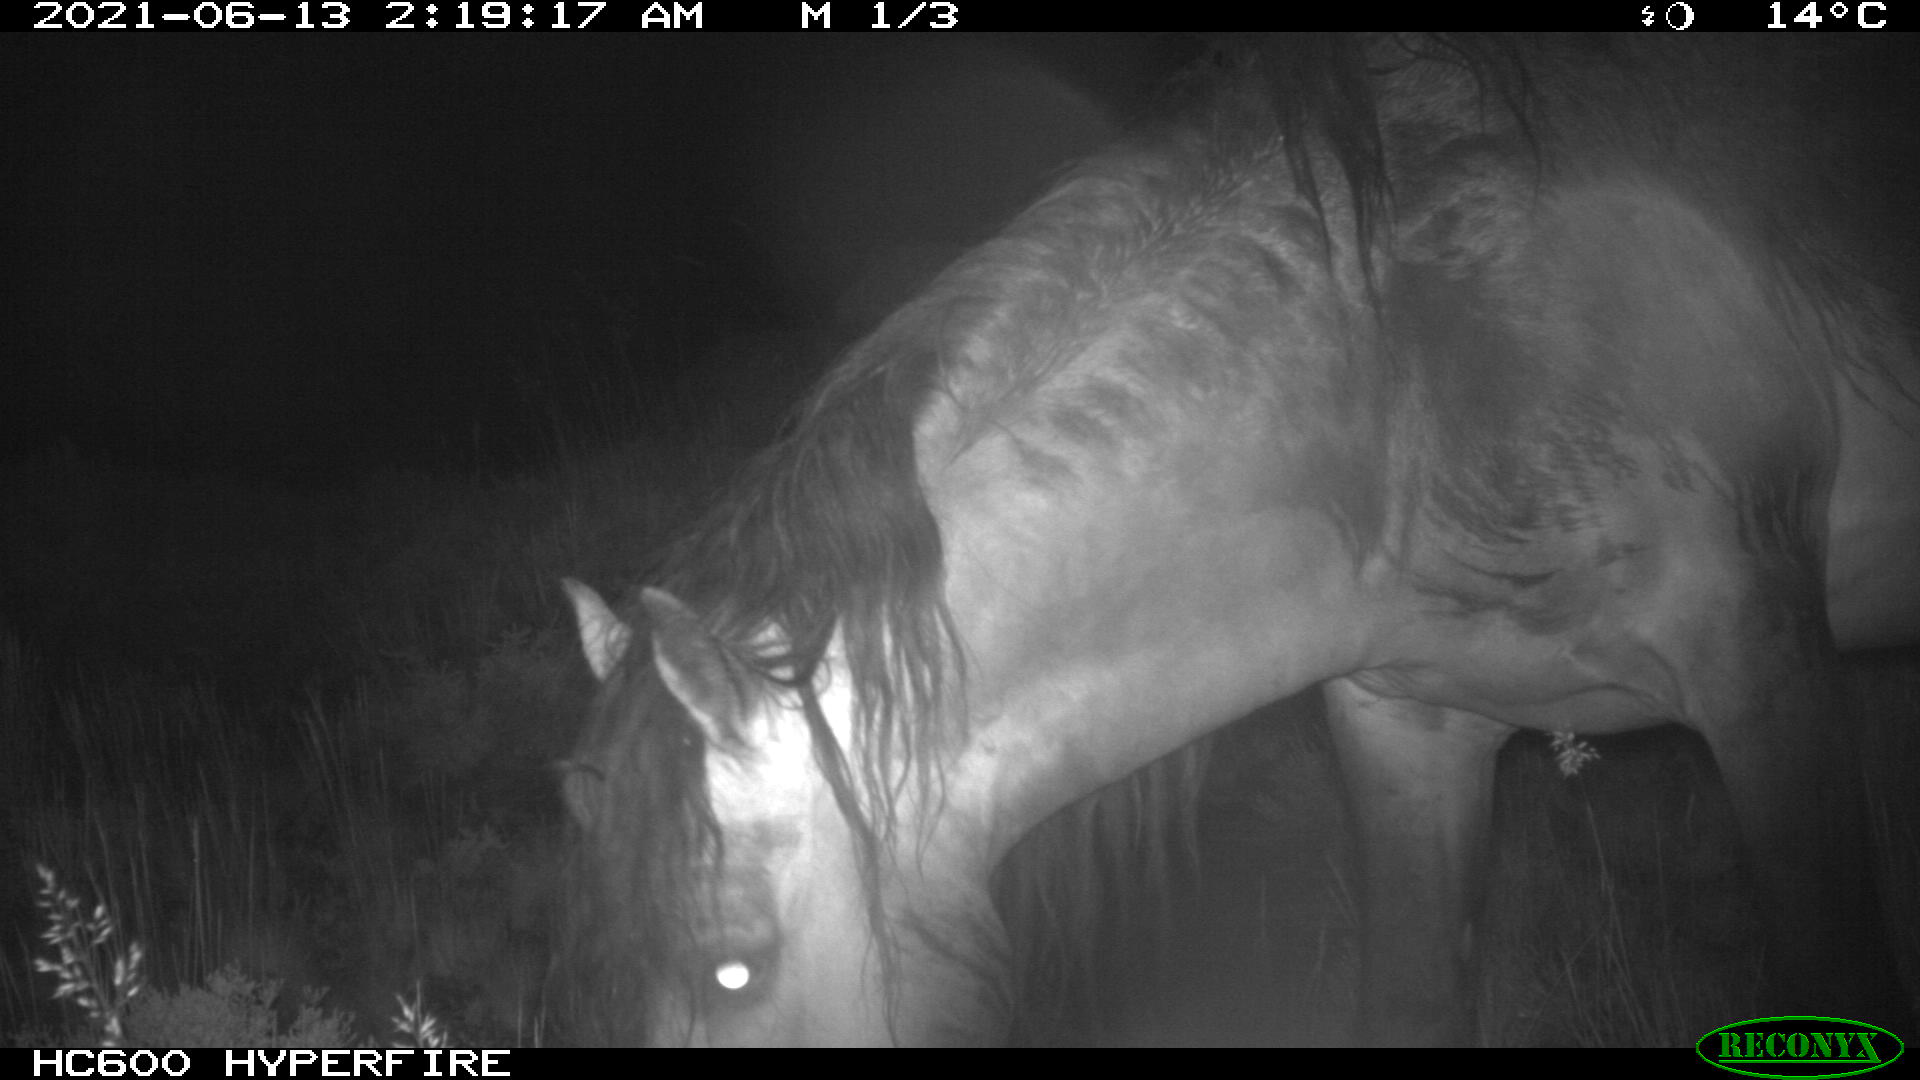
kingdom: Animalia
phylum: Chordata
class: Mammalia
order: Perissodactyla
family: Equidae
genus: Equus
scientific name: Equus caballus
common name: Horse
